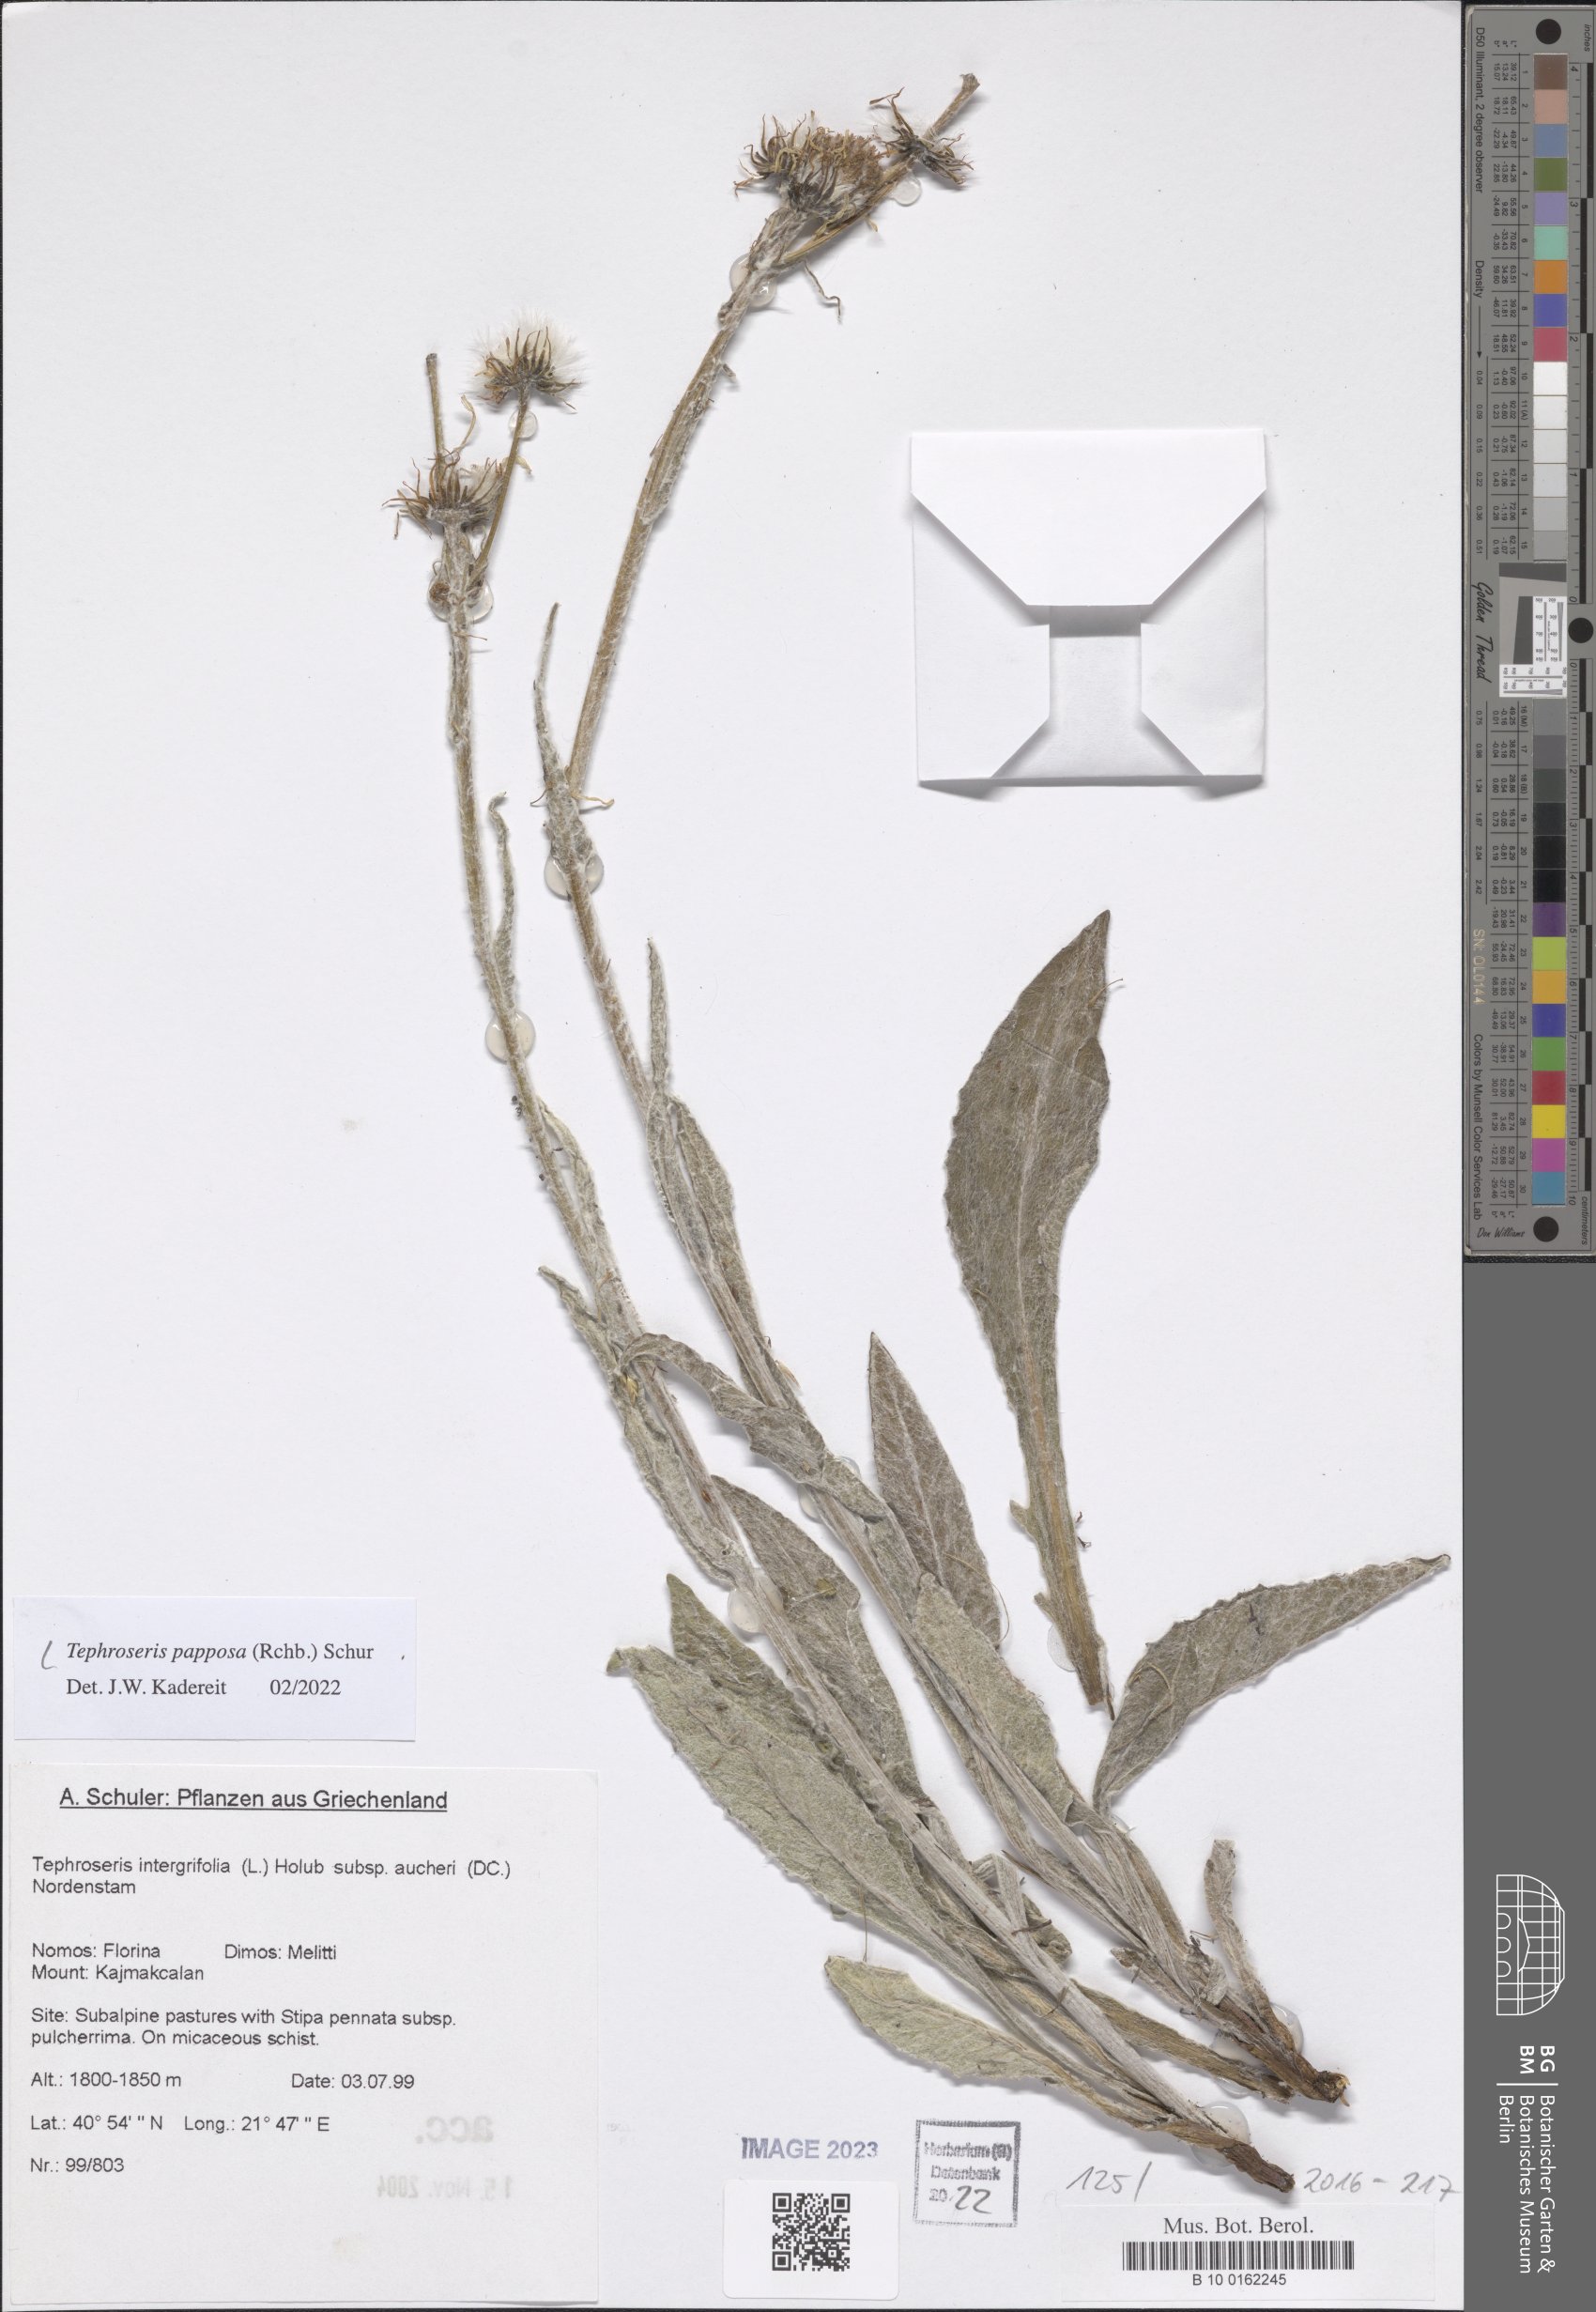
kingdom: Plantae
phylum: Tracheophyta
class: Magnoliopsida
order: Asterales
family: Asteraceae
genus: Tephroseris
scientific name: Tephroseris papposa
